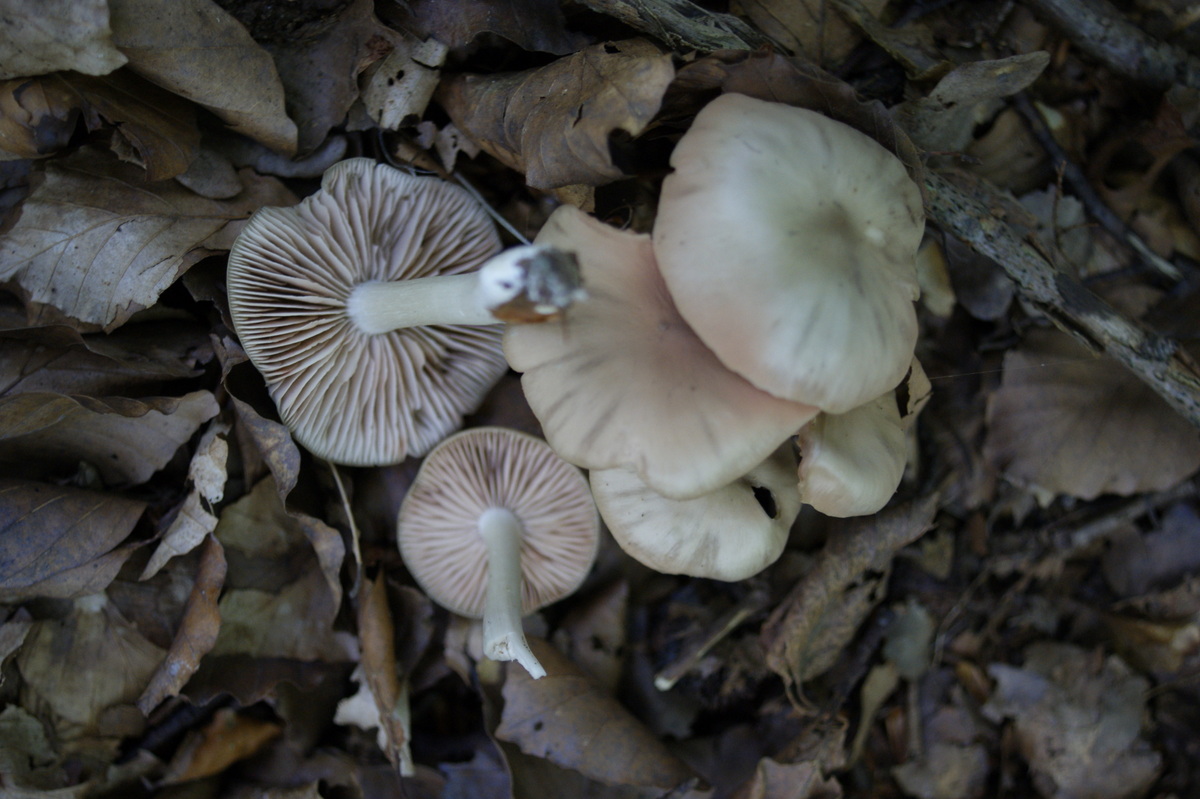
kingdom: Fungi
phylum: Basidiomycota
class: Agaricomycetes
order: Agaricales
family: Entolomataceae
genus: Entoloma
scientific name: Entoloma rhodopolium
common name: skov-rødblad
